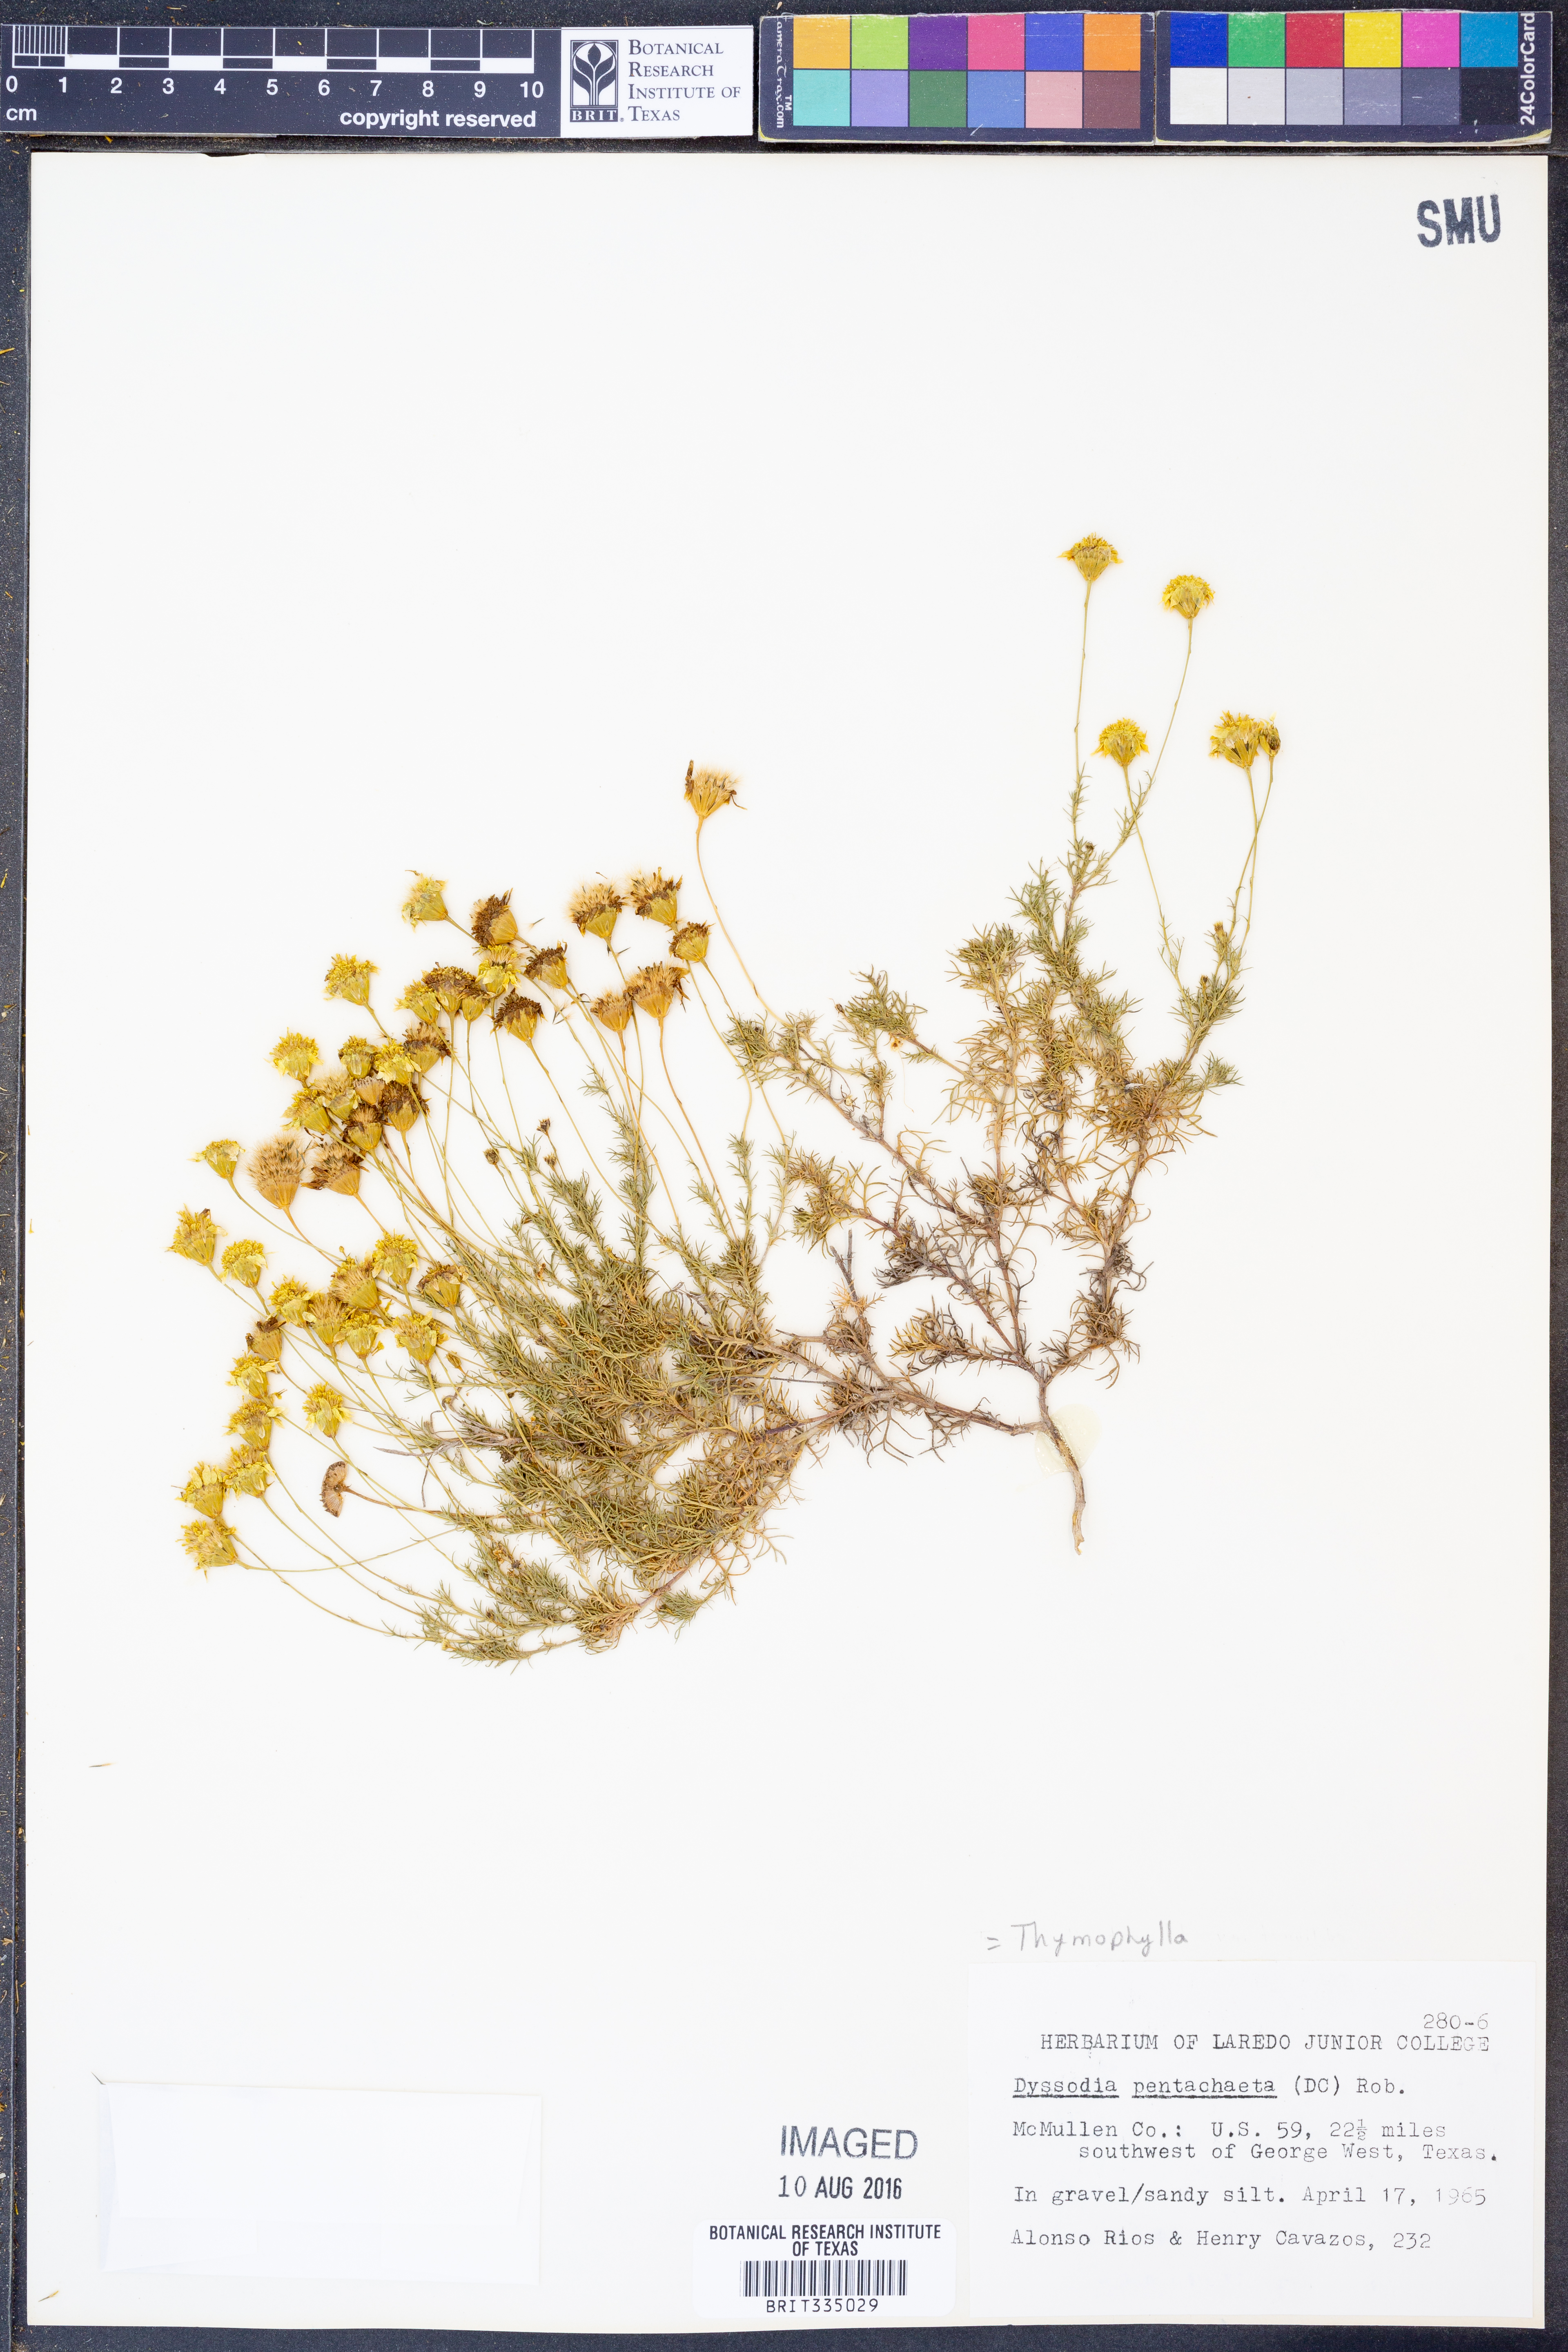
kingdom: Plantae
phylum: Tracheophyta
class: Magnoliopsida
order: Asterales
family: Asteraceae
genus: Thymophylla
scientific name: Thymophylla pentachaeta
